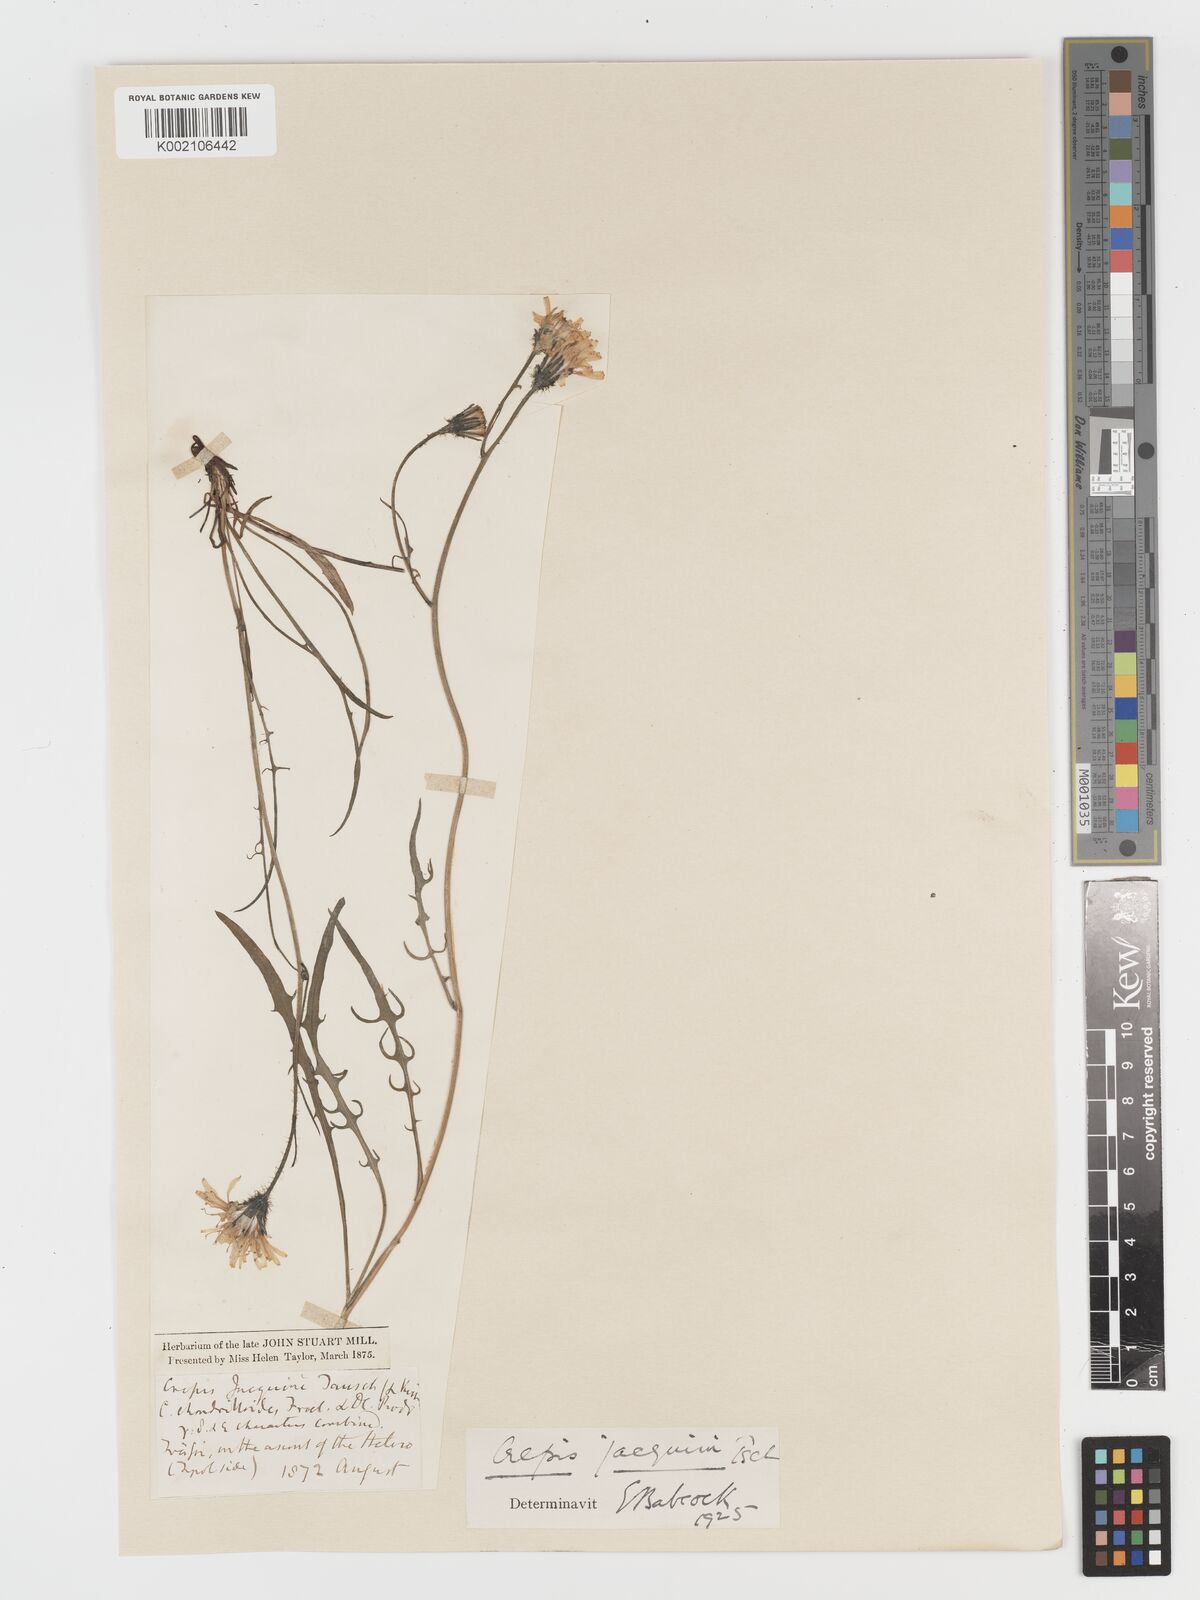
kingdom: Plantae
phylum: Tracheophyta
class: Magnoliopsida
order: Asterales
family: Asteraceae
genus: Crepis
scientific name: Crepis jacquinii
